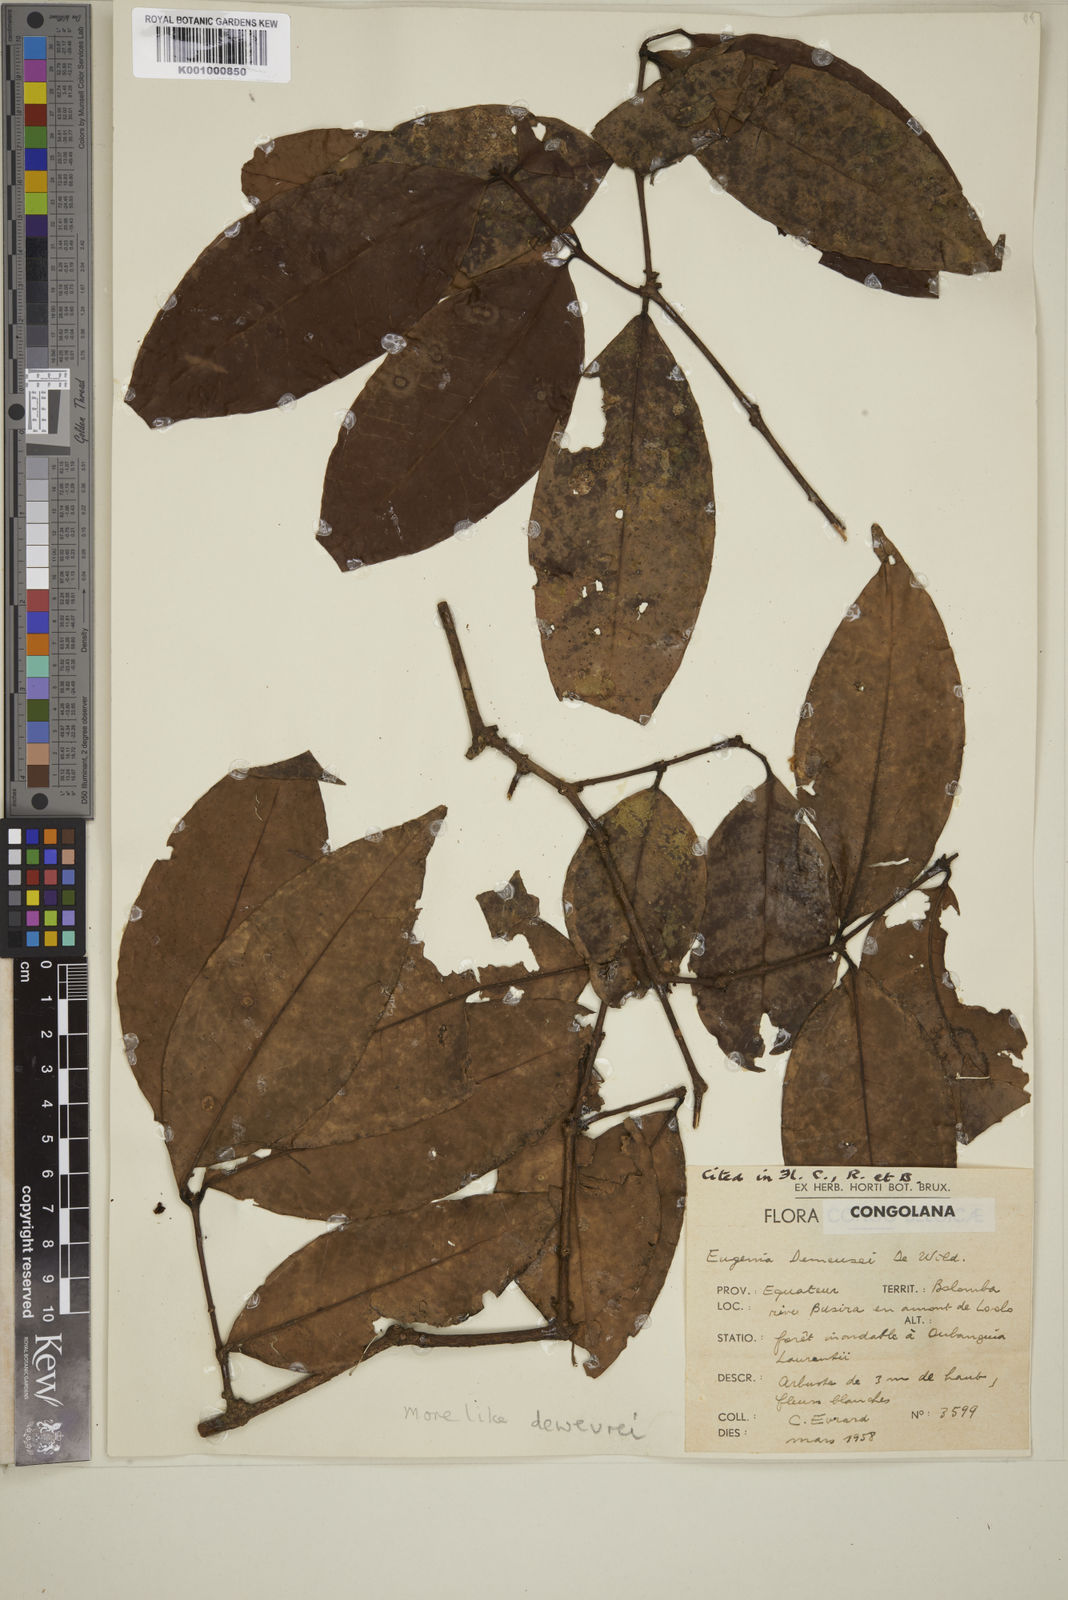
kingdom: Plantae
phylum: Tracheophyta
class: Magnoliopsida
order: Myrtales
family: Myrtaceae
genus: Eugenia
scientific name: Eugenia
